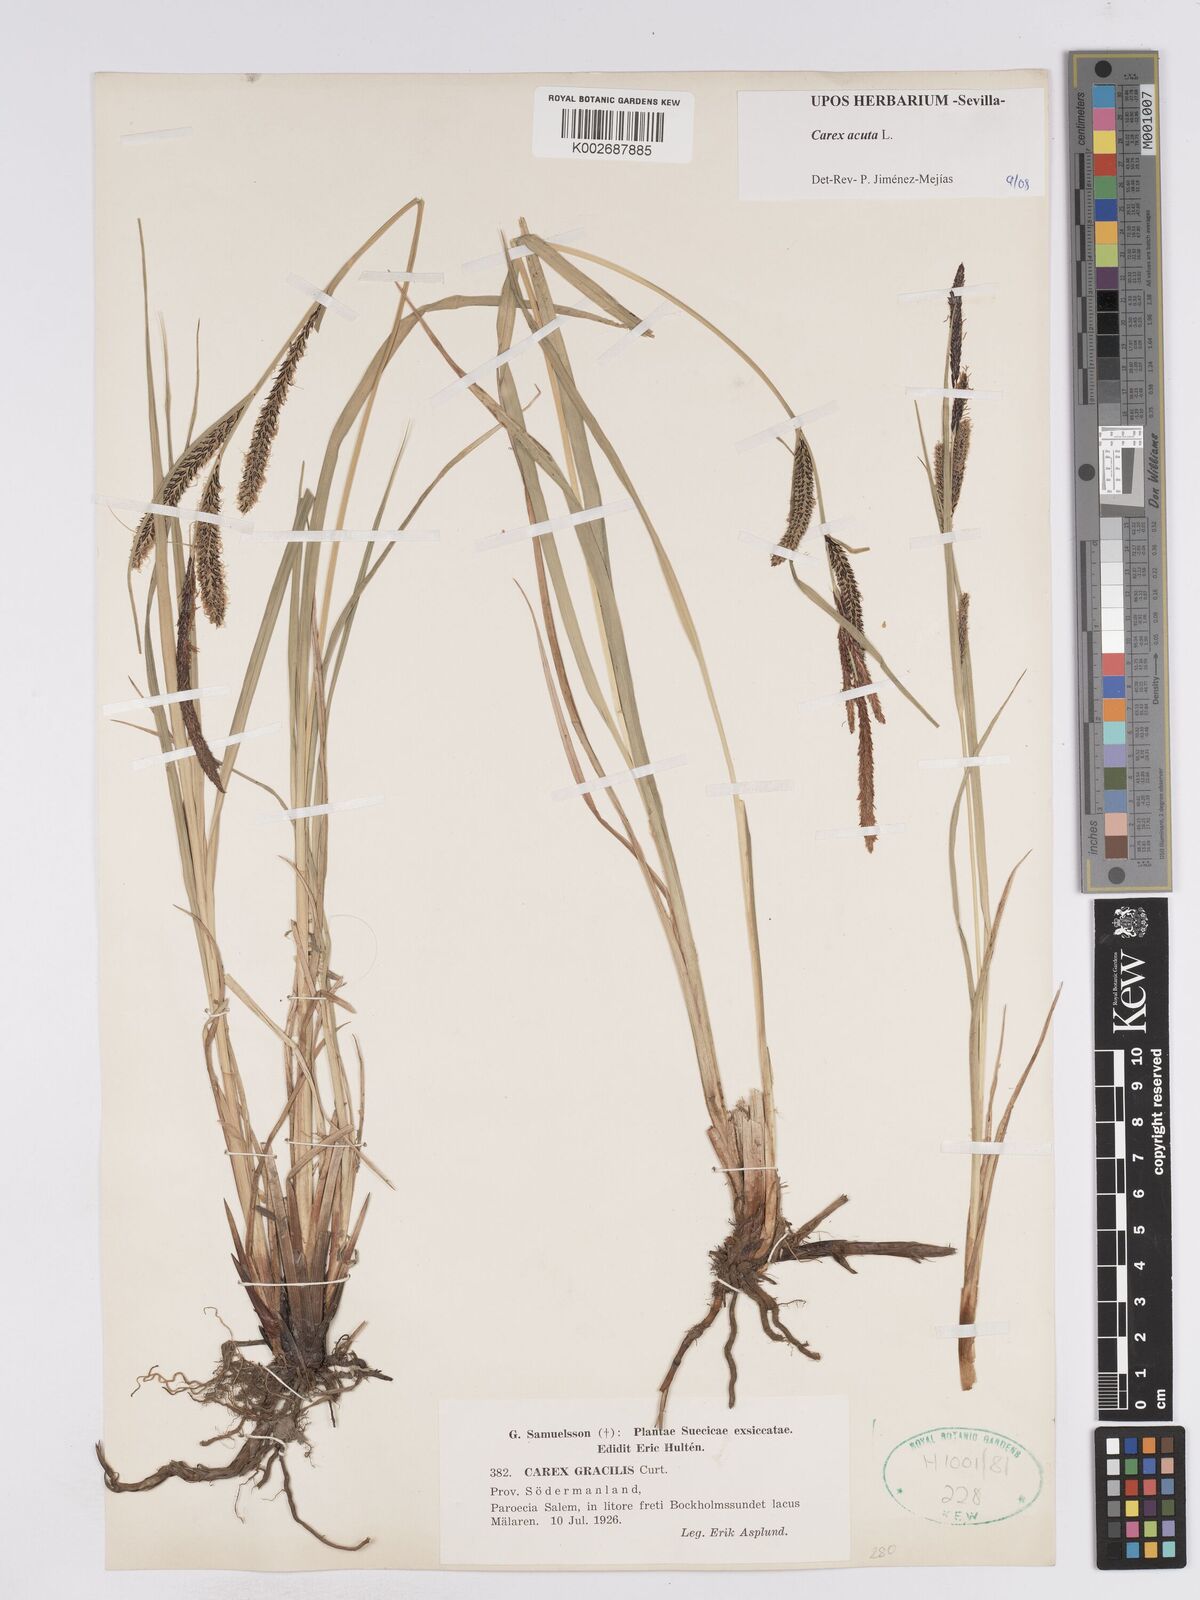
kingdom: Plantae
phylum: Tracheophyta
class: Liliopsida
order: Poales
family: Cyperaceae
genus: Carex
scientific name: Carex acuta
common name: Slender tufted-sedge
